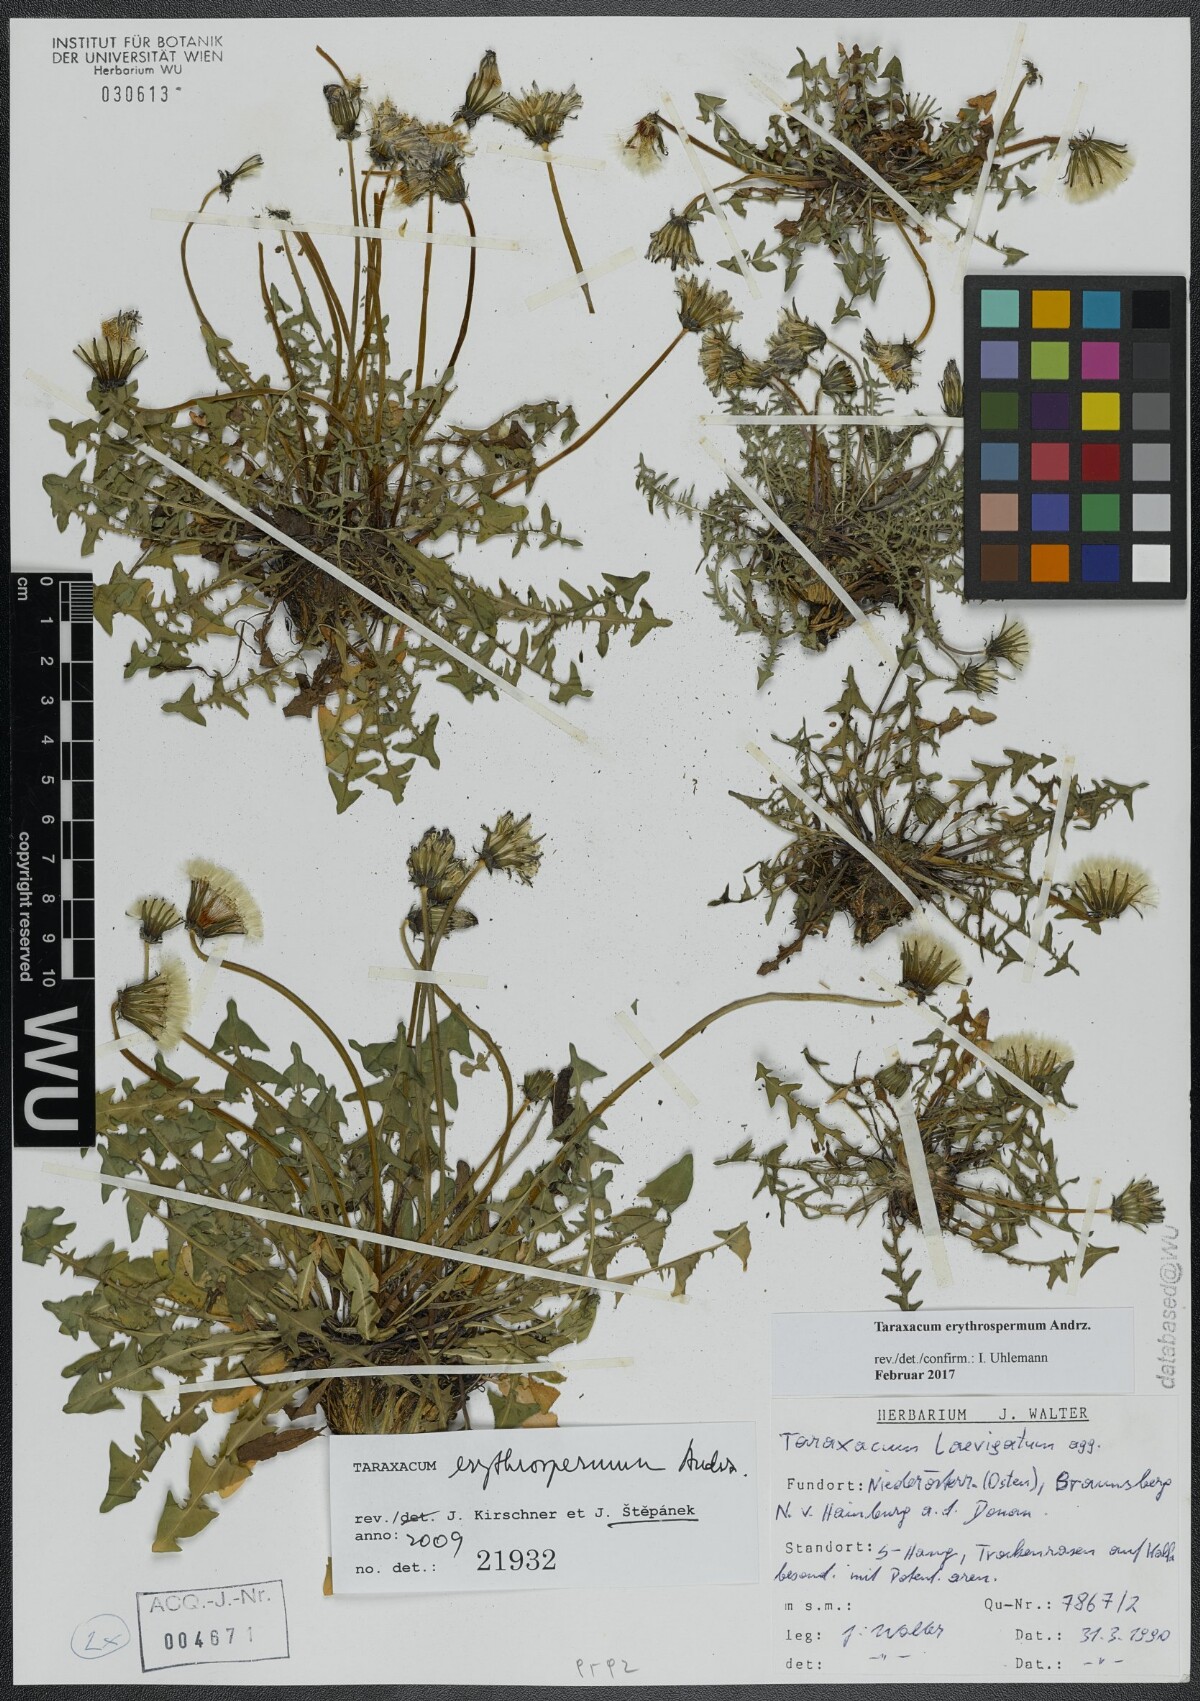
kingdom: Plantae
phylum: Tracheophyta
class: Magnoliopsida
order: Asterales
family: Asteraceae
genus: Taraxacum
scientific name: Taraxacum erythrospermum
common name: Rock dandelion
